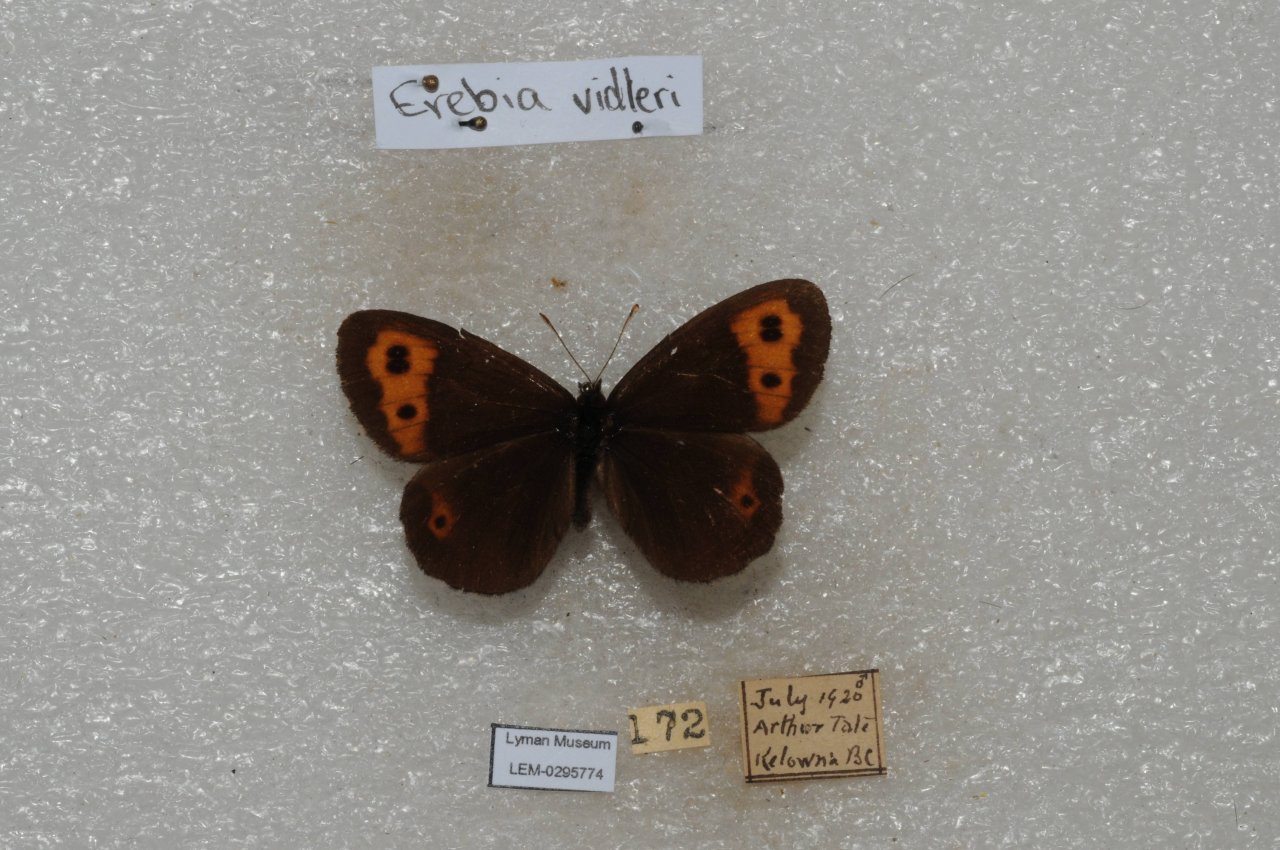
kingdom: Animalia
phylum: Arthropoda
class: Insecta
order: Lepidoptera
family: Nymphalidae
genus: Erebia
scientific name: Erebia vidleri
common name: Vidler's Alpine
